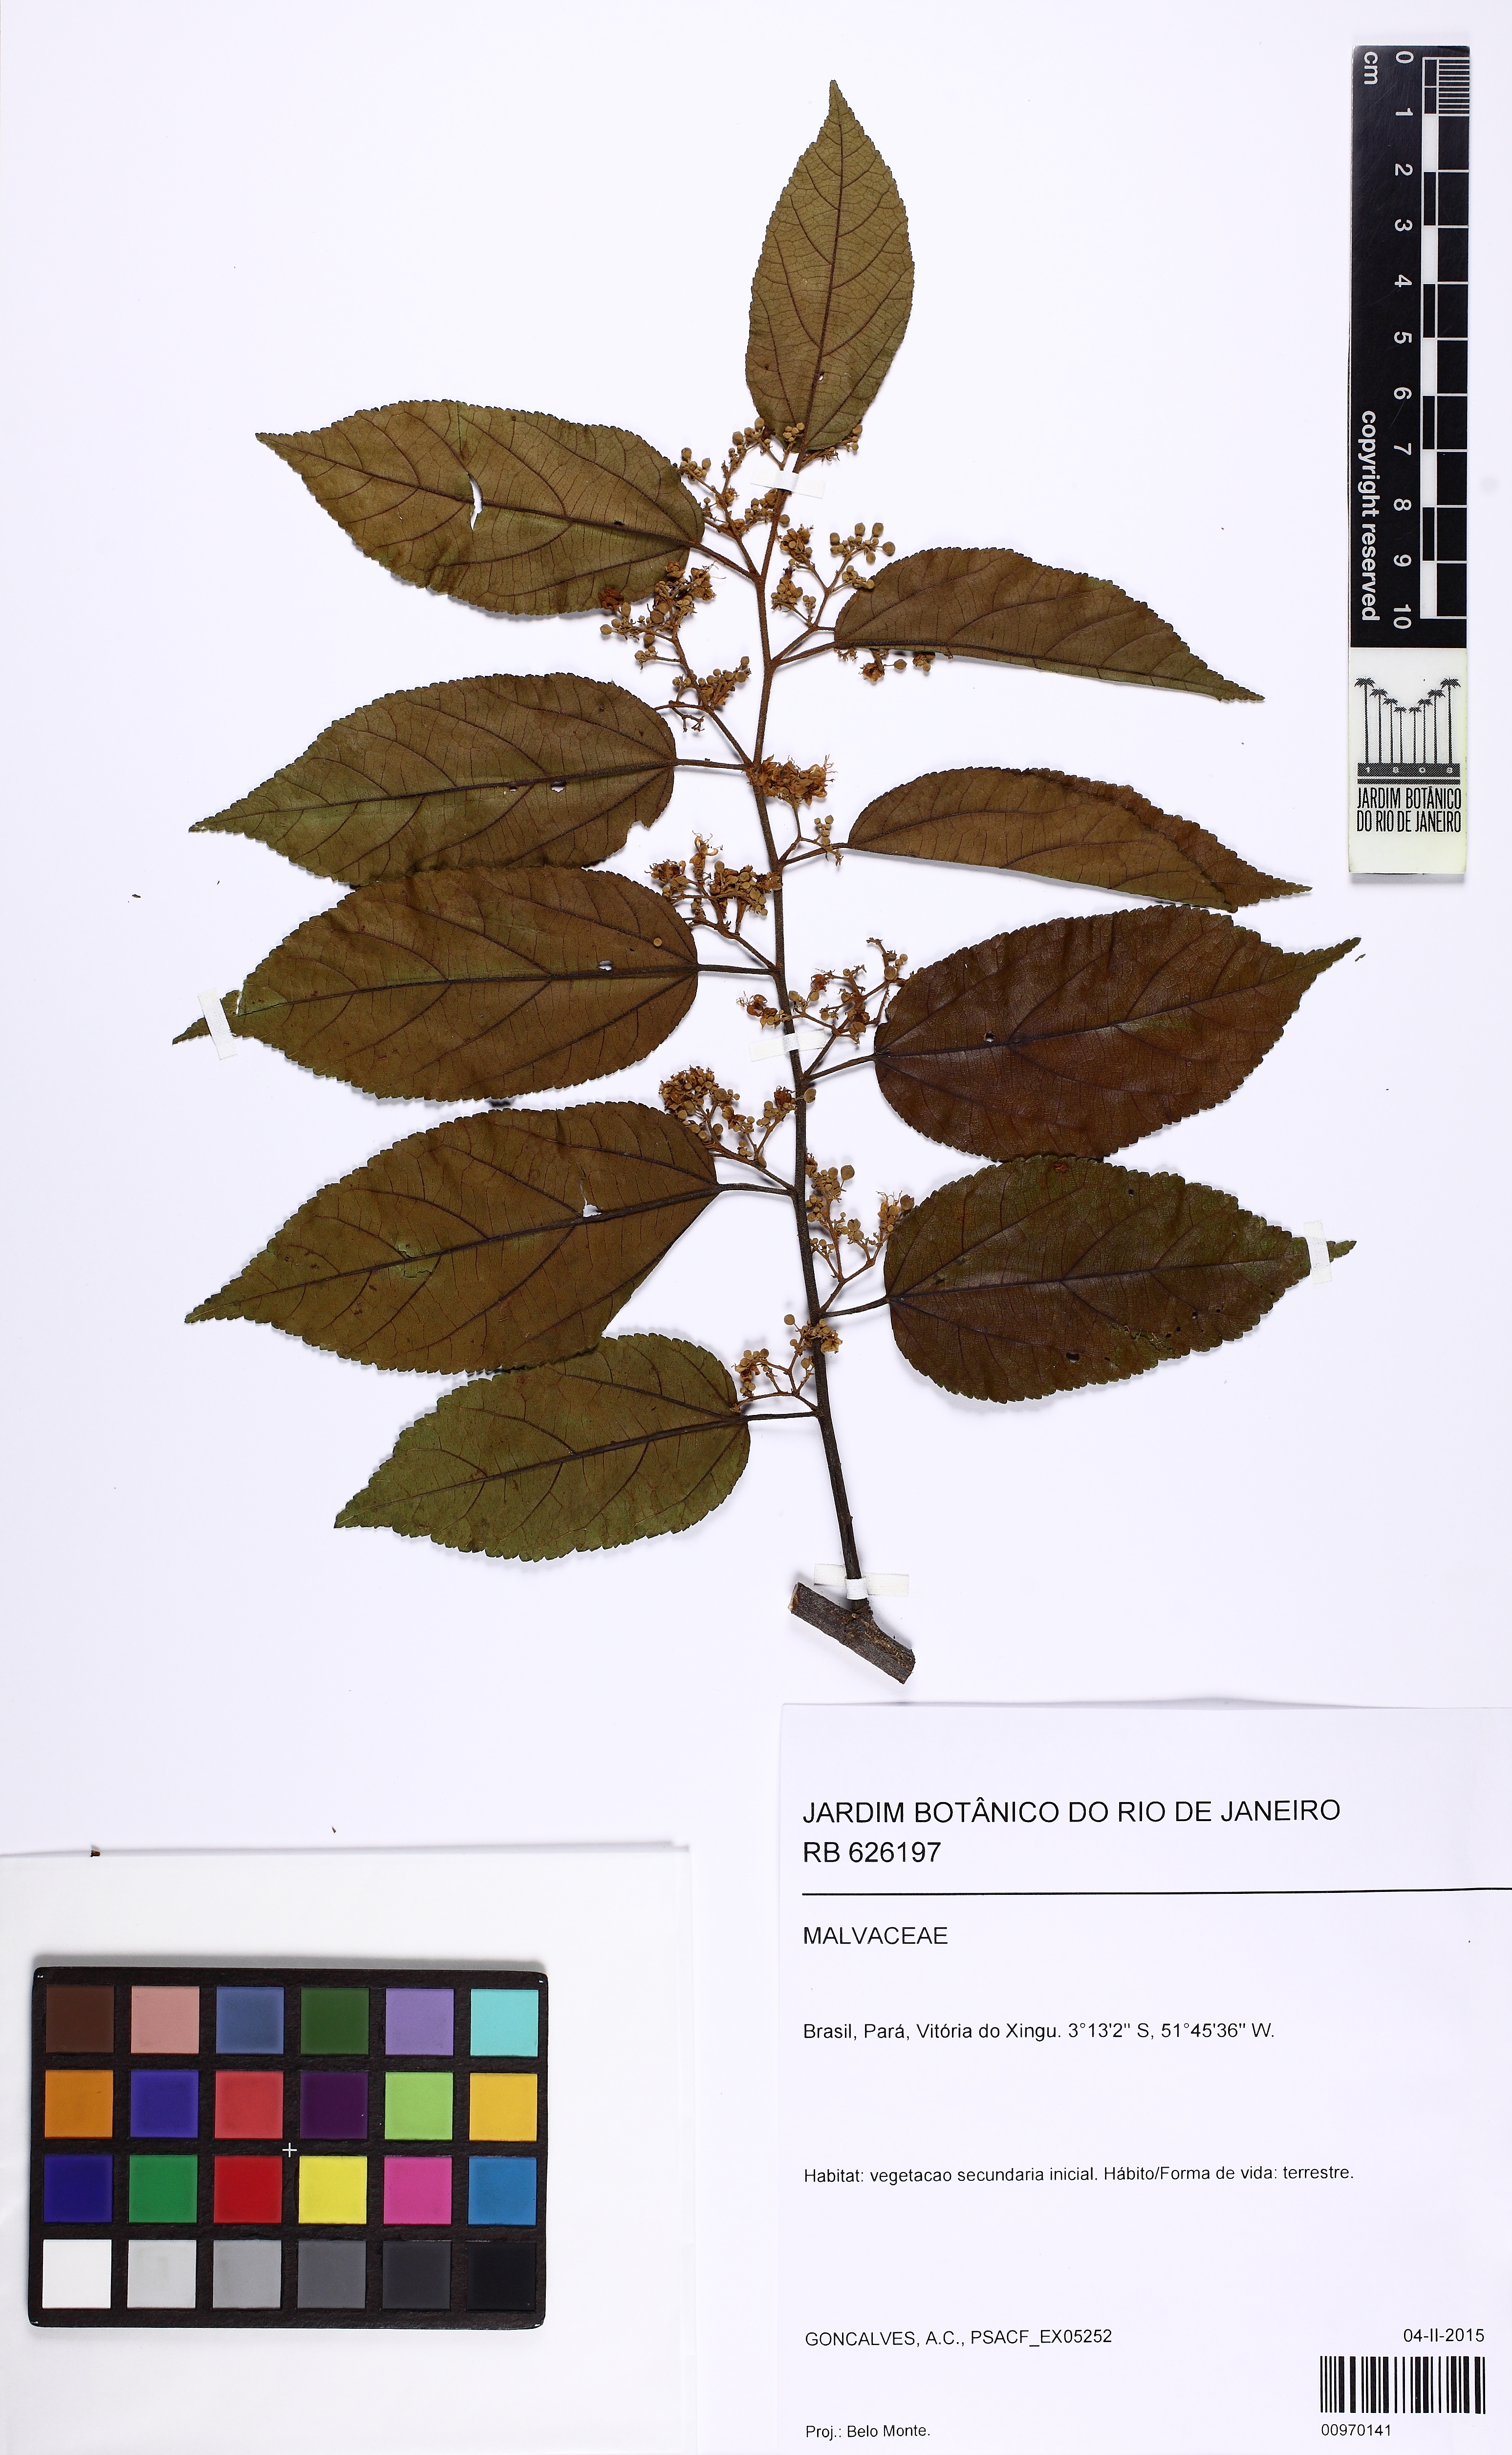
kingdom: Plantae
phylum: Tracheophyta
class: Magnoliopsida
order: Malvales
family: Malvaceae
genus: Guazuma
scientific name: Guazuma ulmifolia
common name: Bastard-cedar
